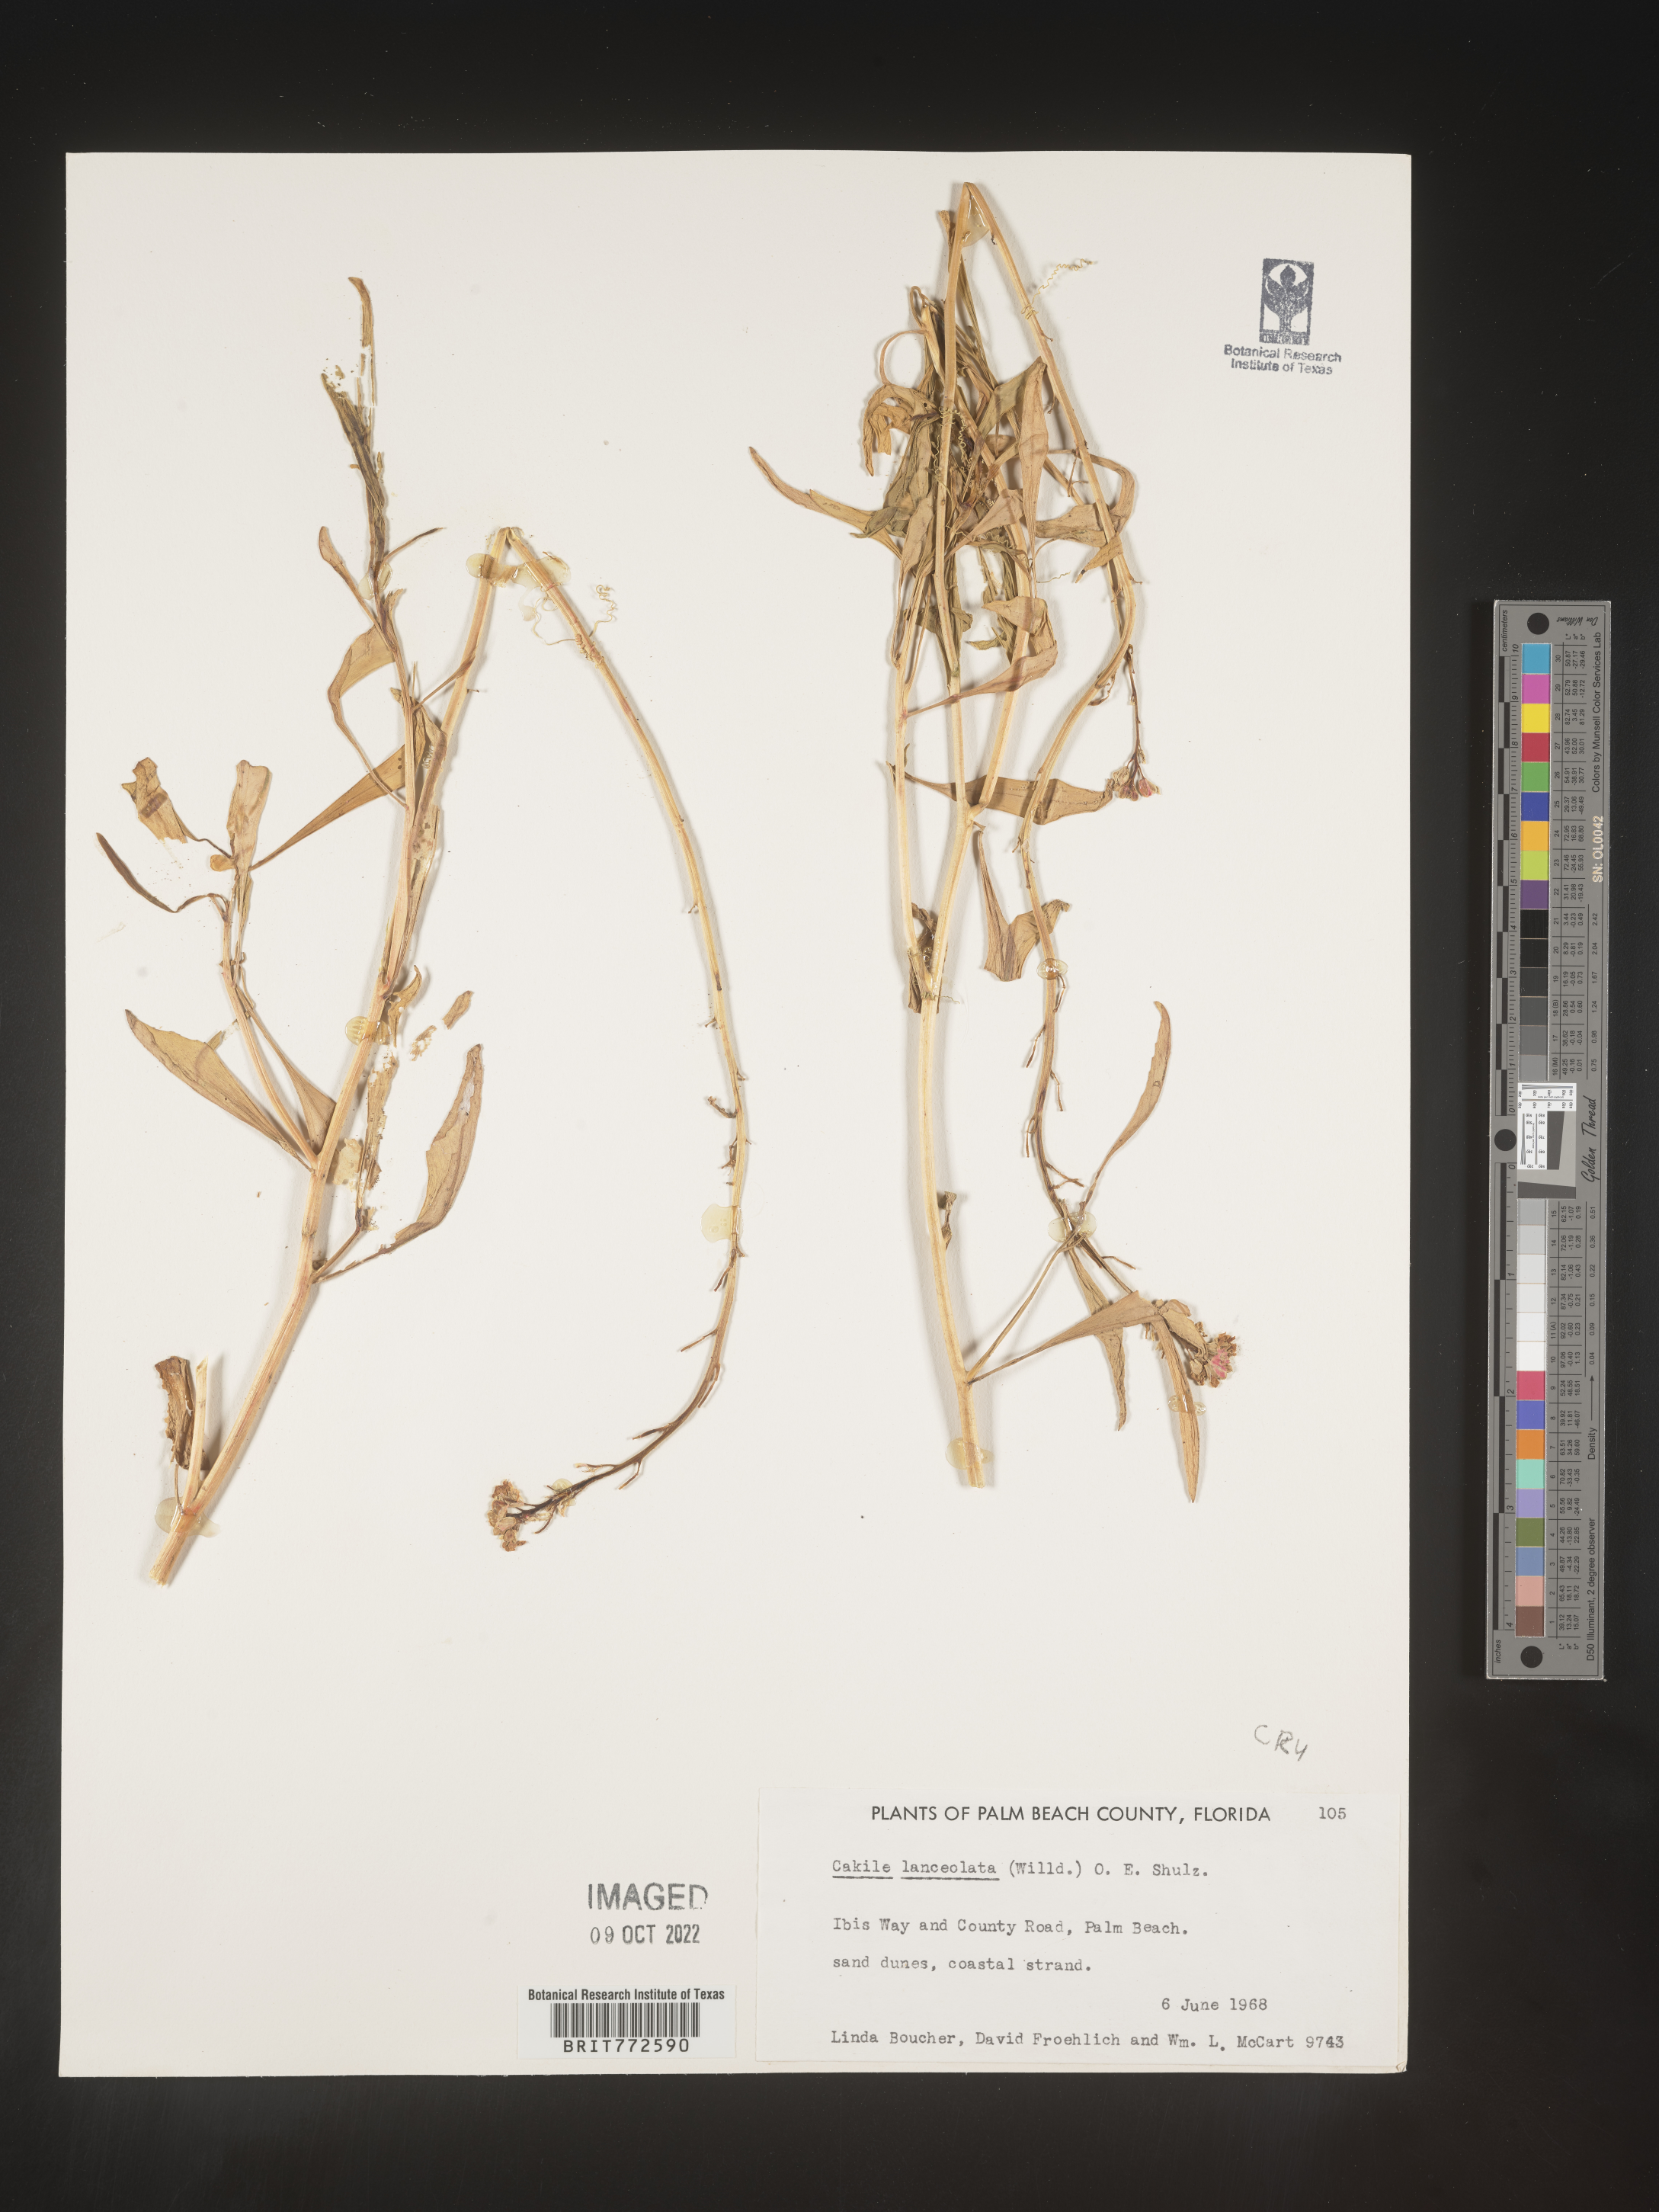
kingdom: Plantae
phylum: Tracheophyta
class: Magnoliopsida
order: Brassicales
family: Brassicaceae
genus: Cakile
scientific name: Cakile lanceolata
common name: Sea rocket
